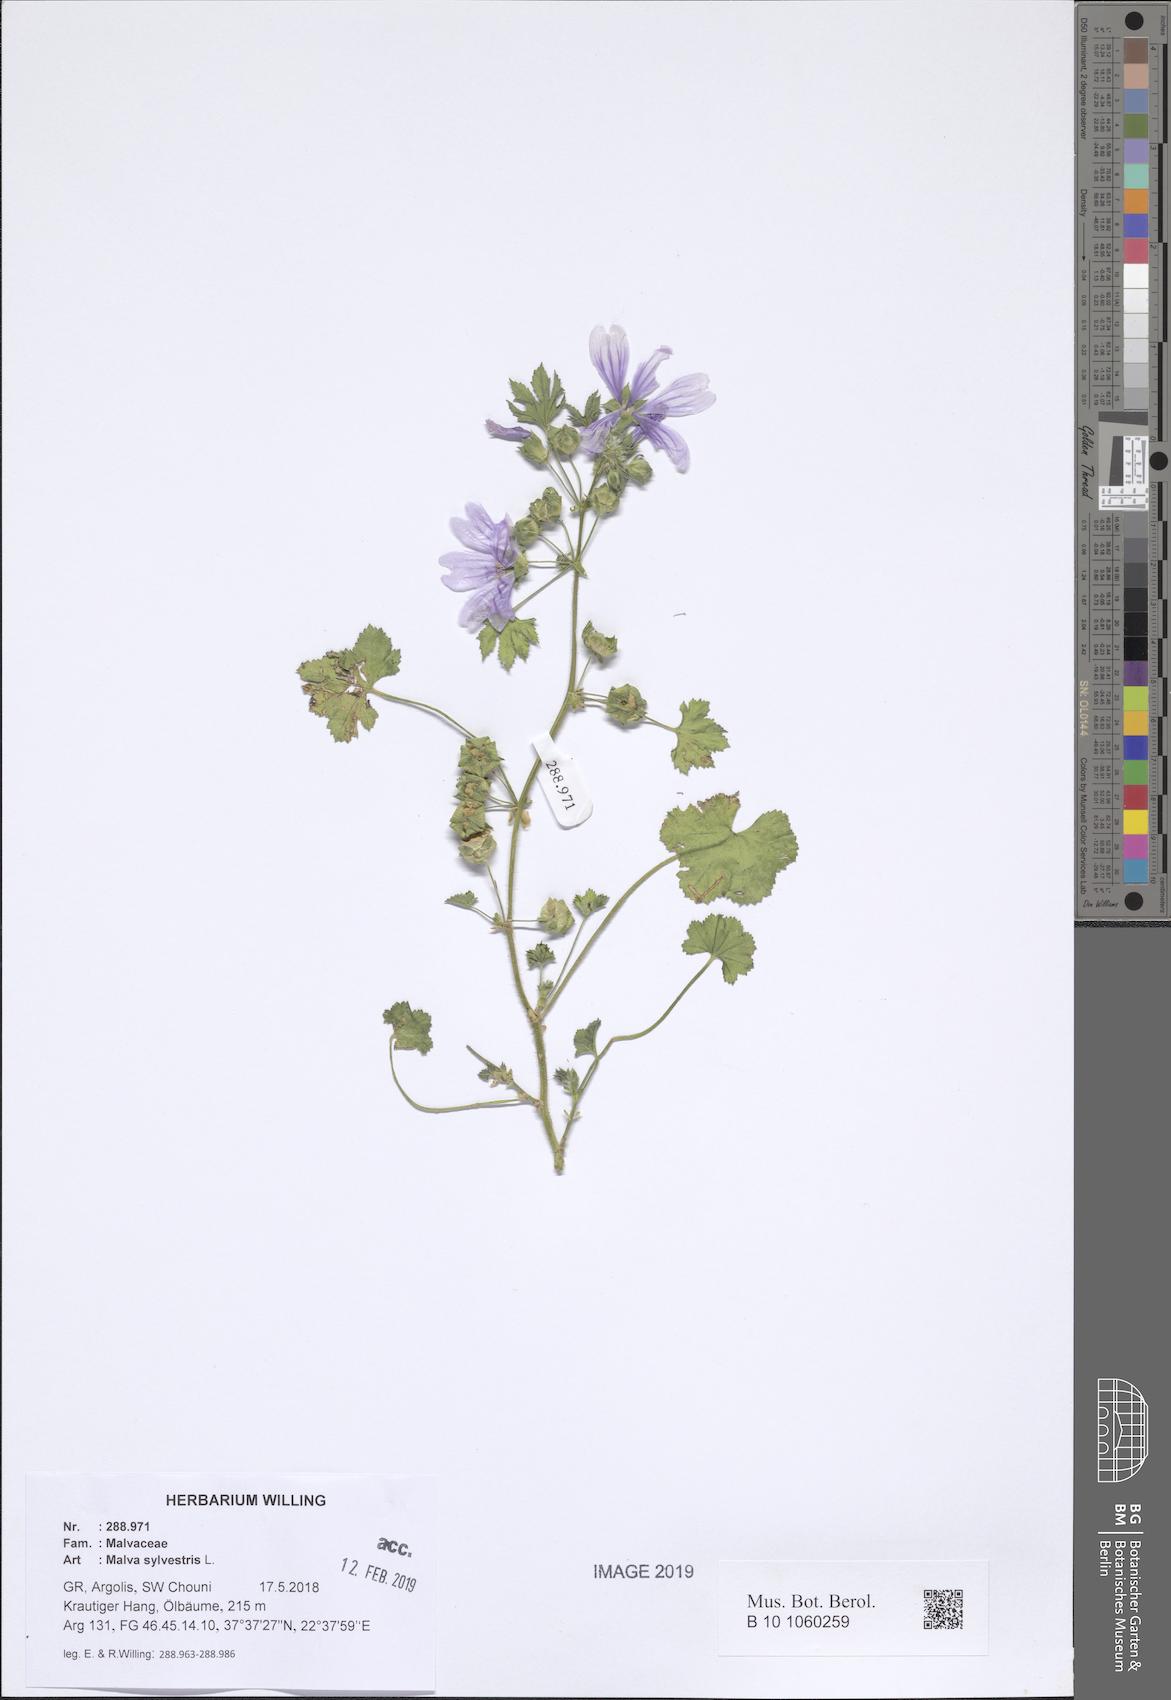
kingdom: Plantae
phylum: Tracheophyta
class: Magnoliopsida
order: Malvales
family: Malvaceae
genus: Malva
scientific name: Malva sylvestris
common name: Common mallow
